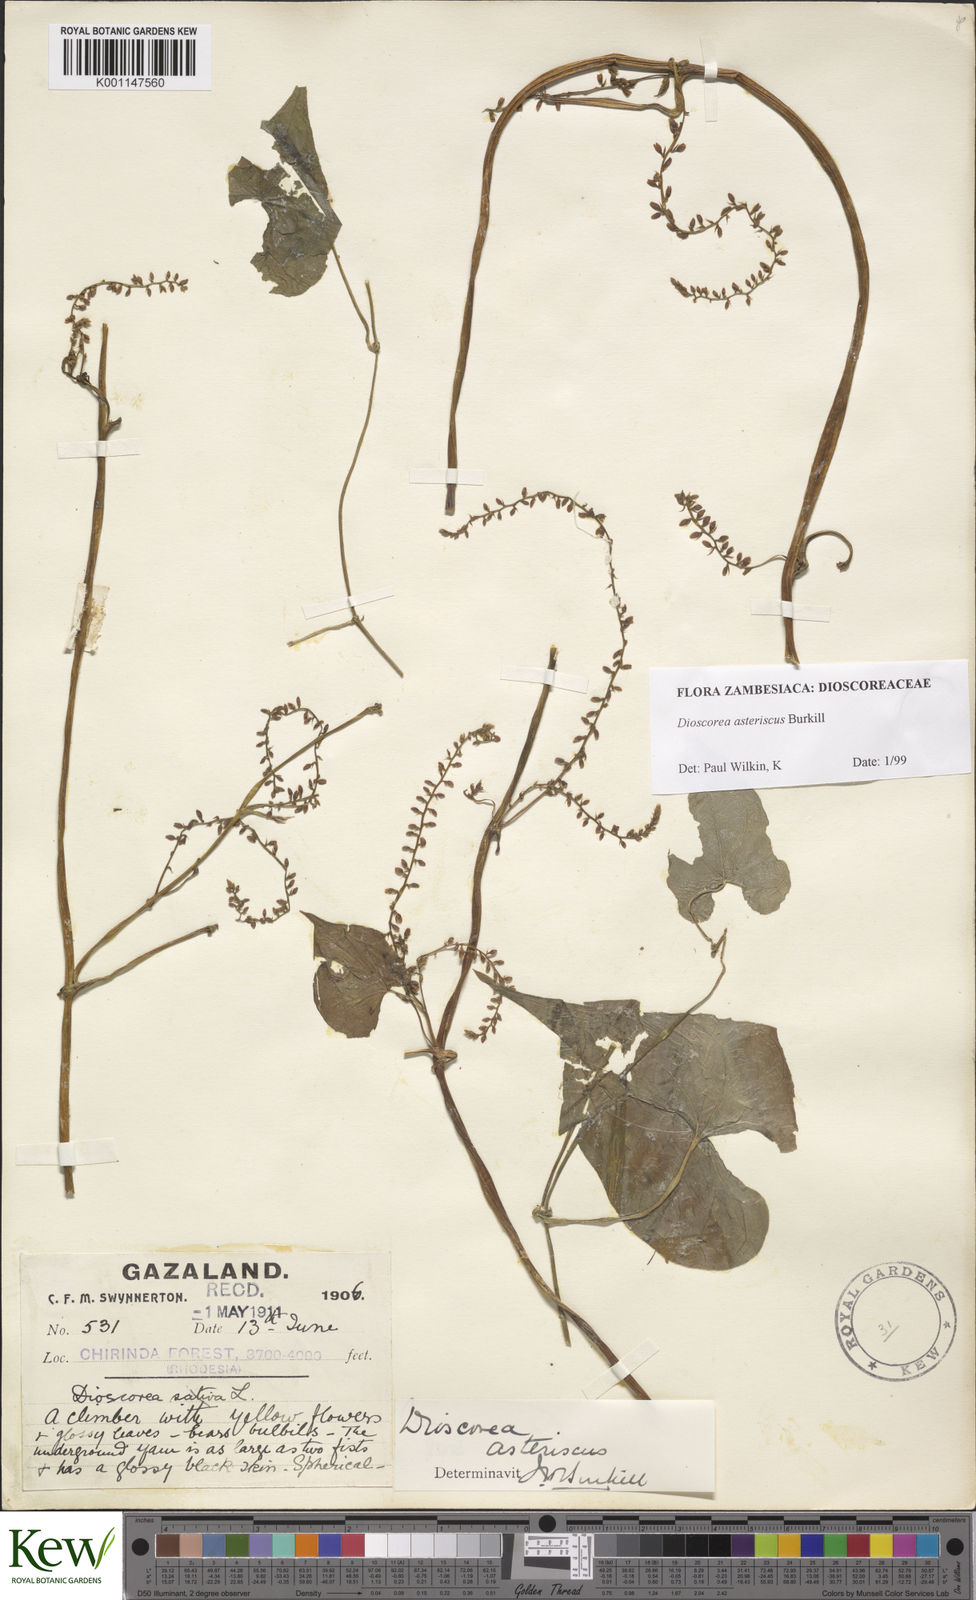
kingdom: Plantae
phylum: Tracheophyta
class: Liliopsida
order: Dioscoreales
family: Dioscoreaceae
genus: Dioscorea
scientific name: Dioscorea asteriscus
